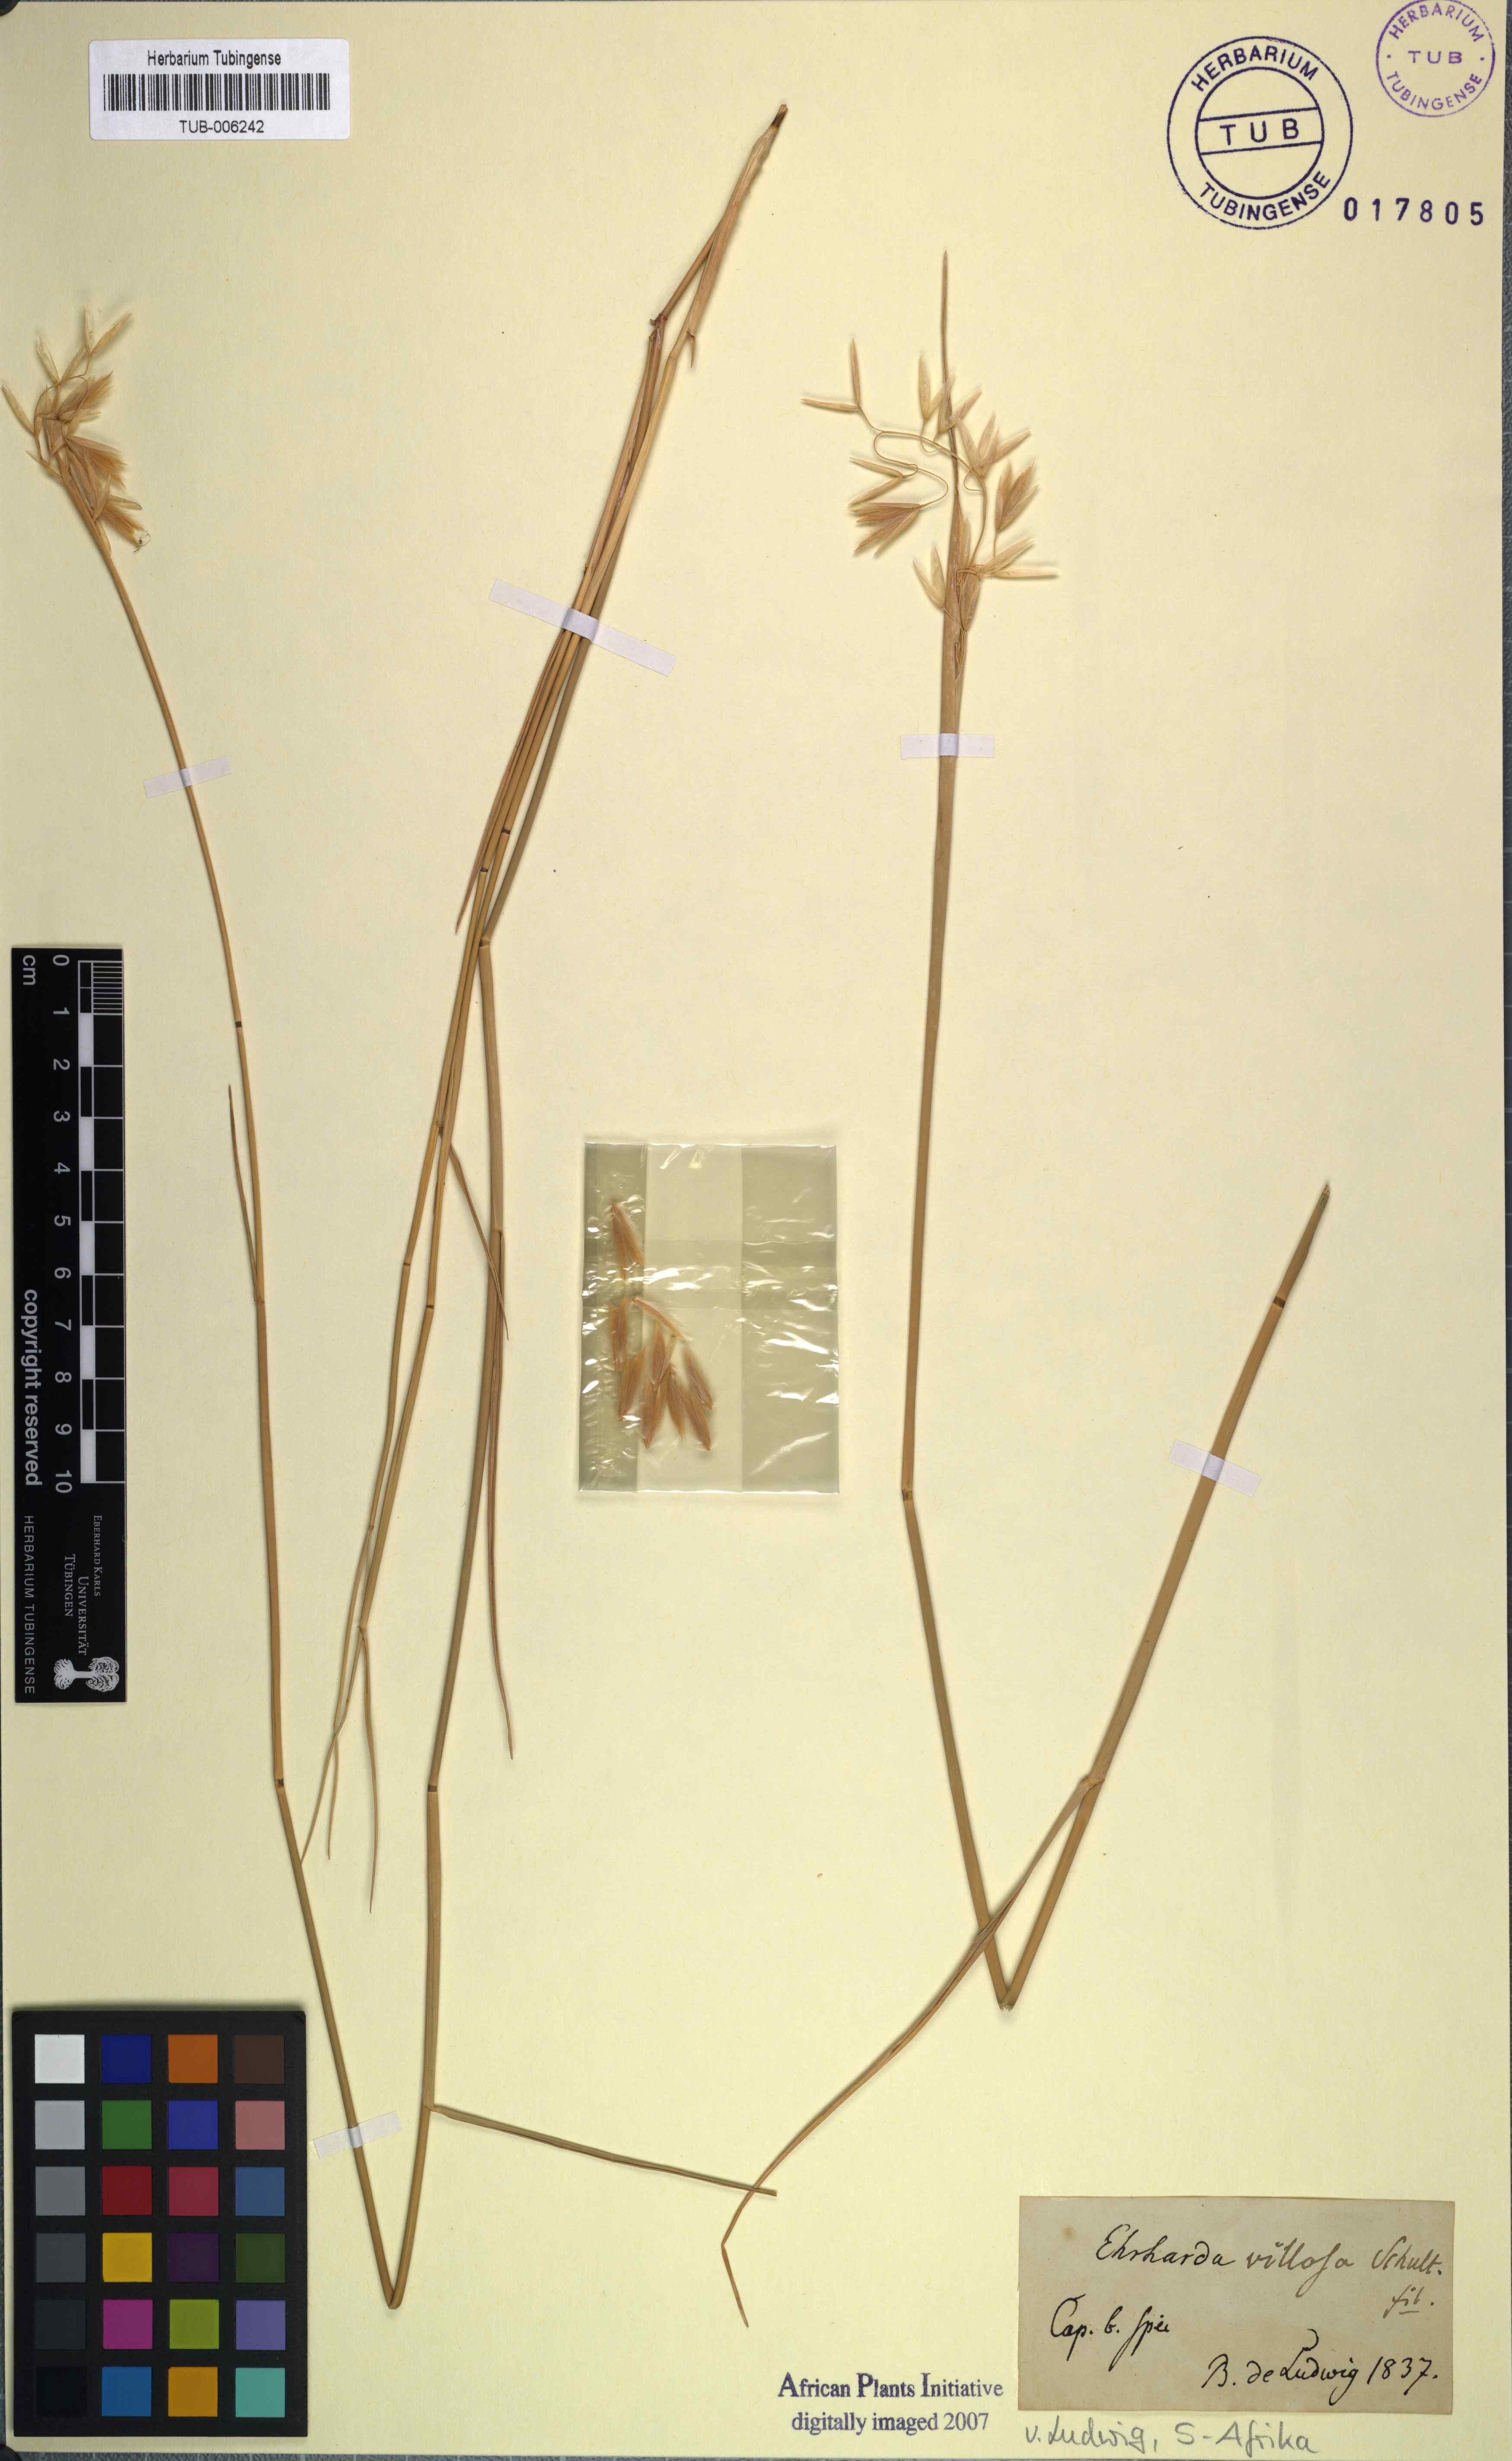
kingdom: Plantae
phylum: Tracheophyta
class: Liliopsida
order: Poales
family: Poaceae
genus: Ehrharta
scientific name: Ehrharta villosa
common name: Pyp grass
